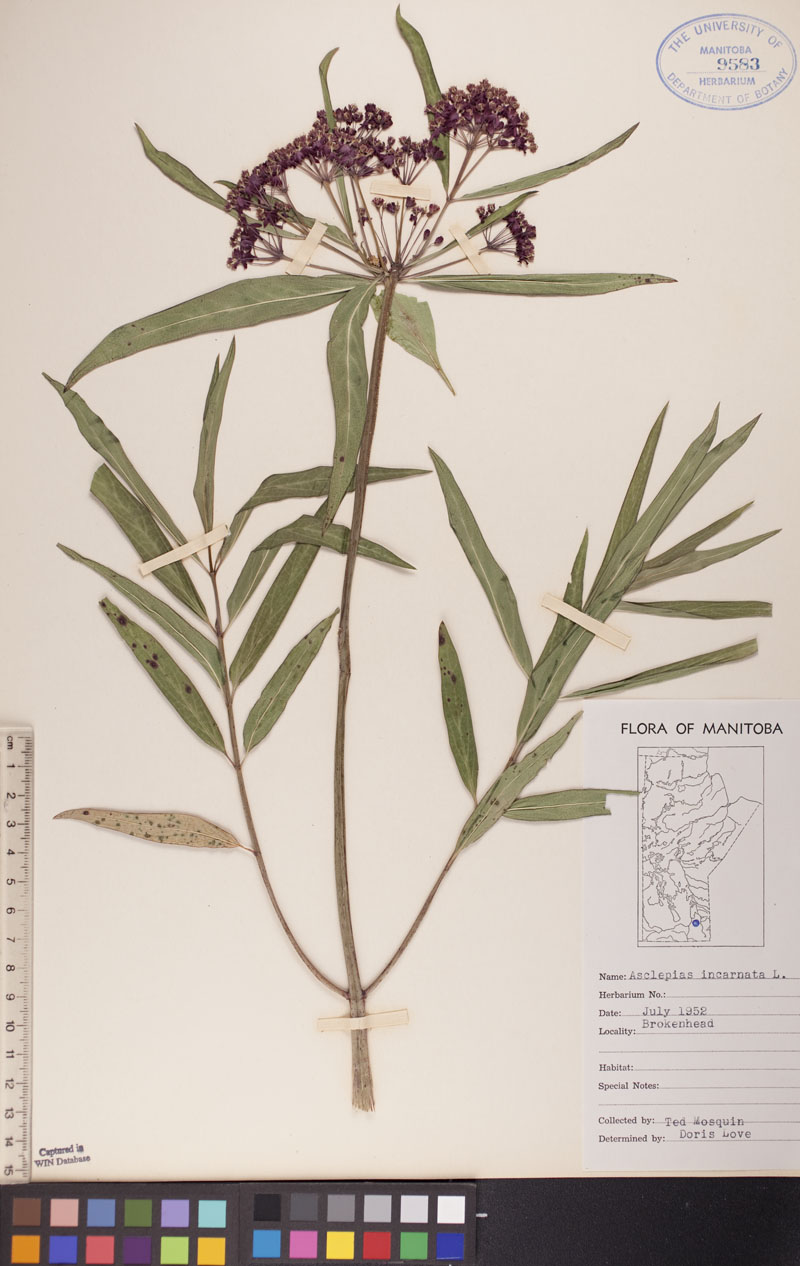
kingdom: Plantae
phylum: Tracheophyta
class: Magnoliopsida
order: Gentianales
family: Apocynaceae
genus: Asclepias
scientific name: Asclepias incarnata
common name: Swamp milkweed
